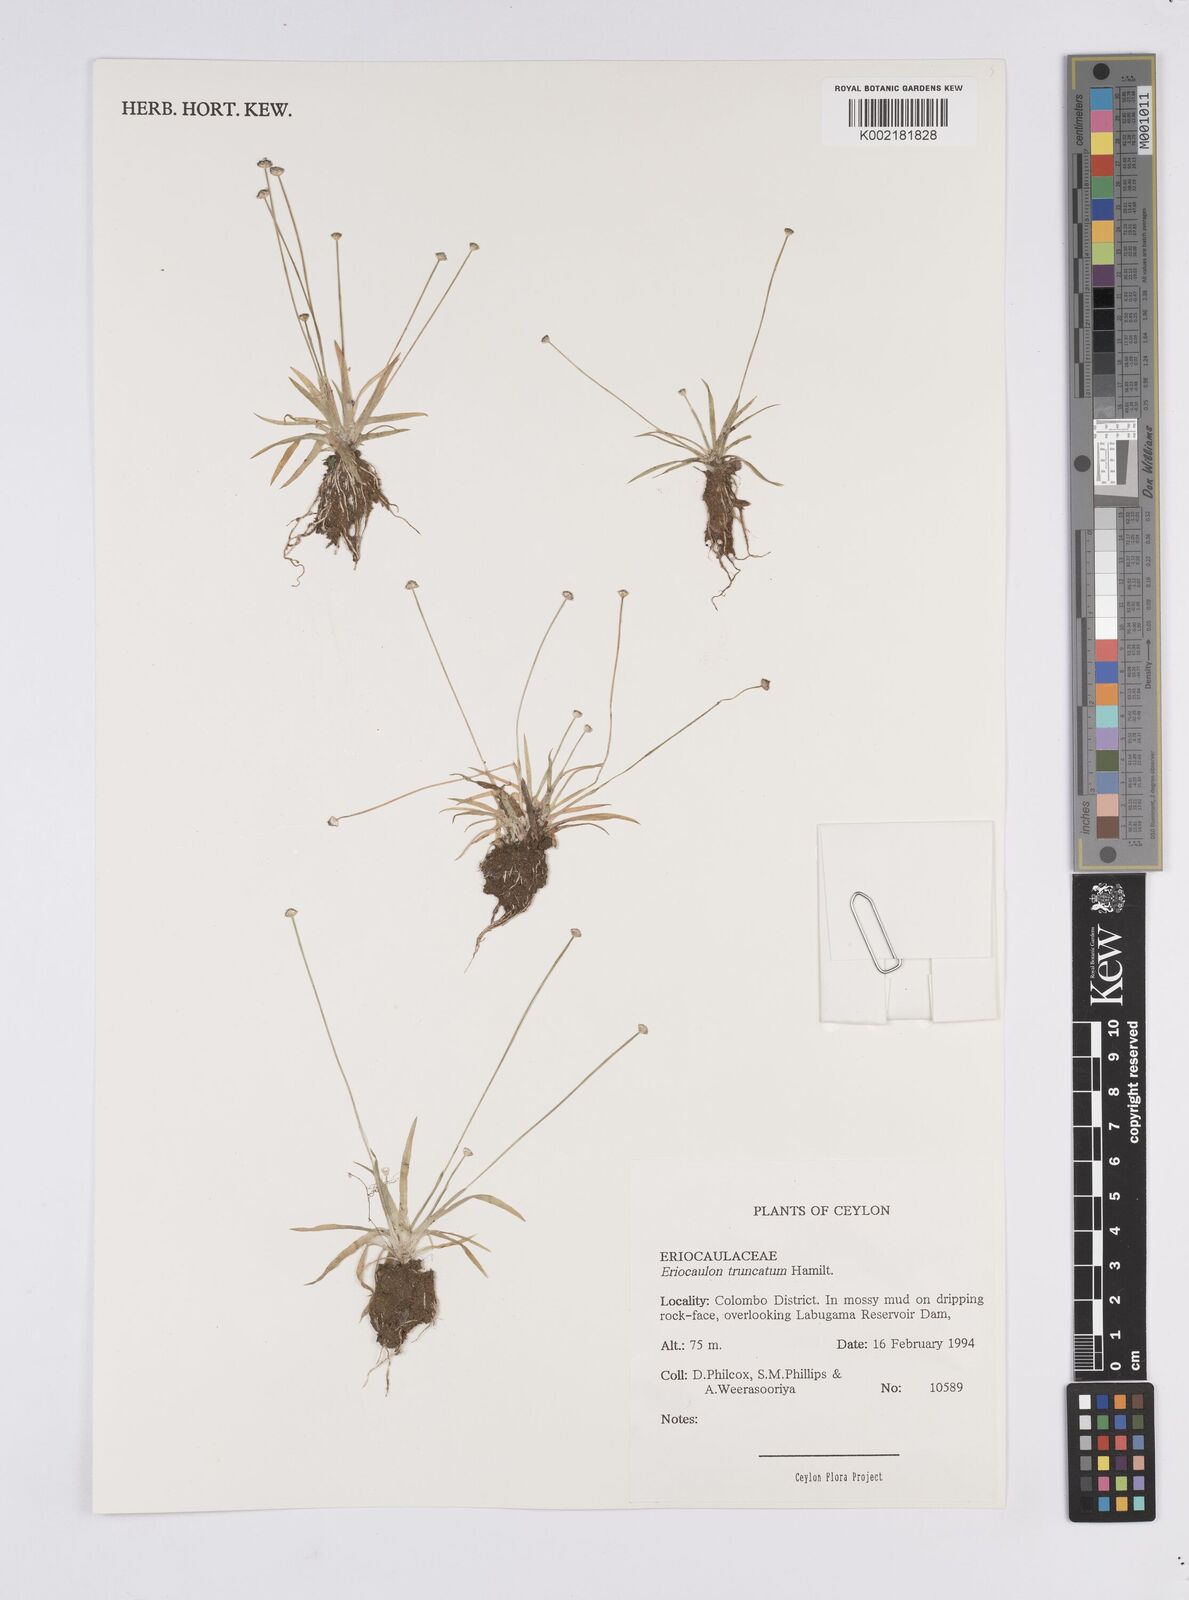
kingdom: Plantae
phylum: Tracheophyta
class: Liliopsida
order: Poales
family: Eriocaulaceae
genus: Eriocaulon
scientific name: Eriocaulon truncatum
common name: Short pipe-wort
